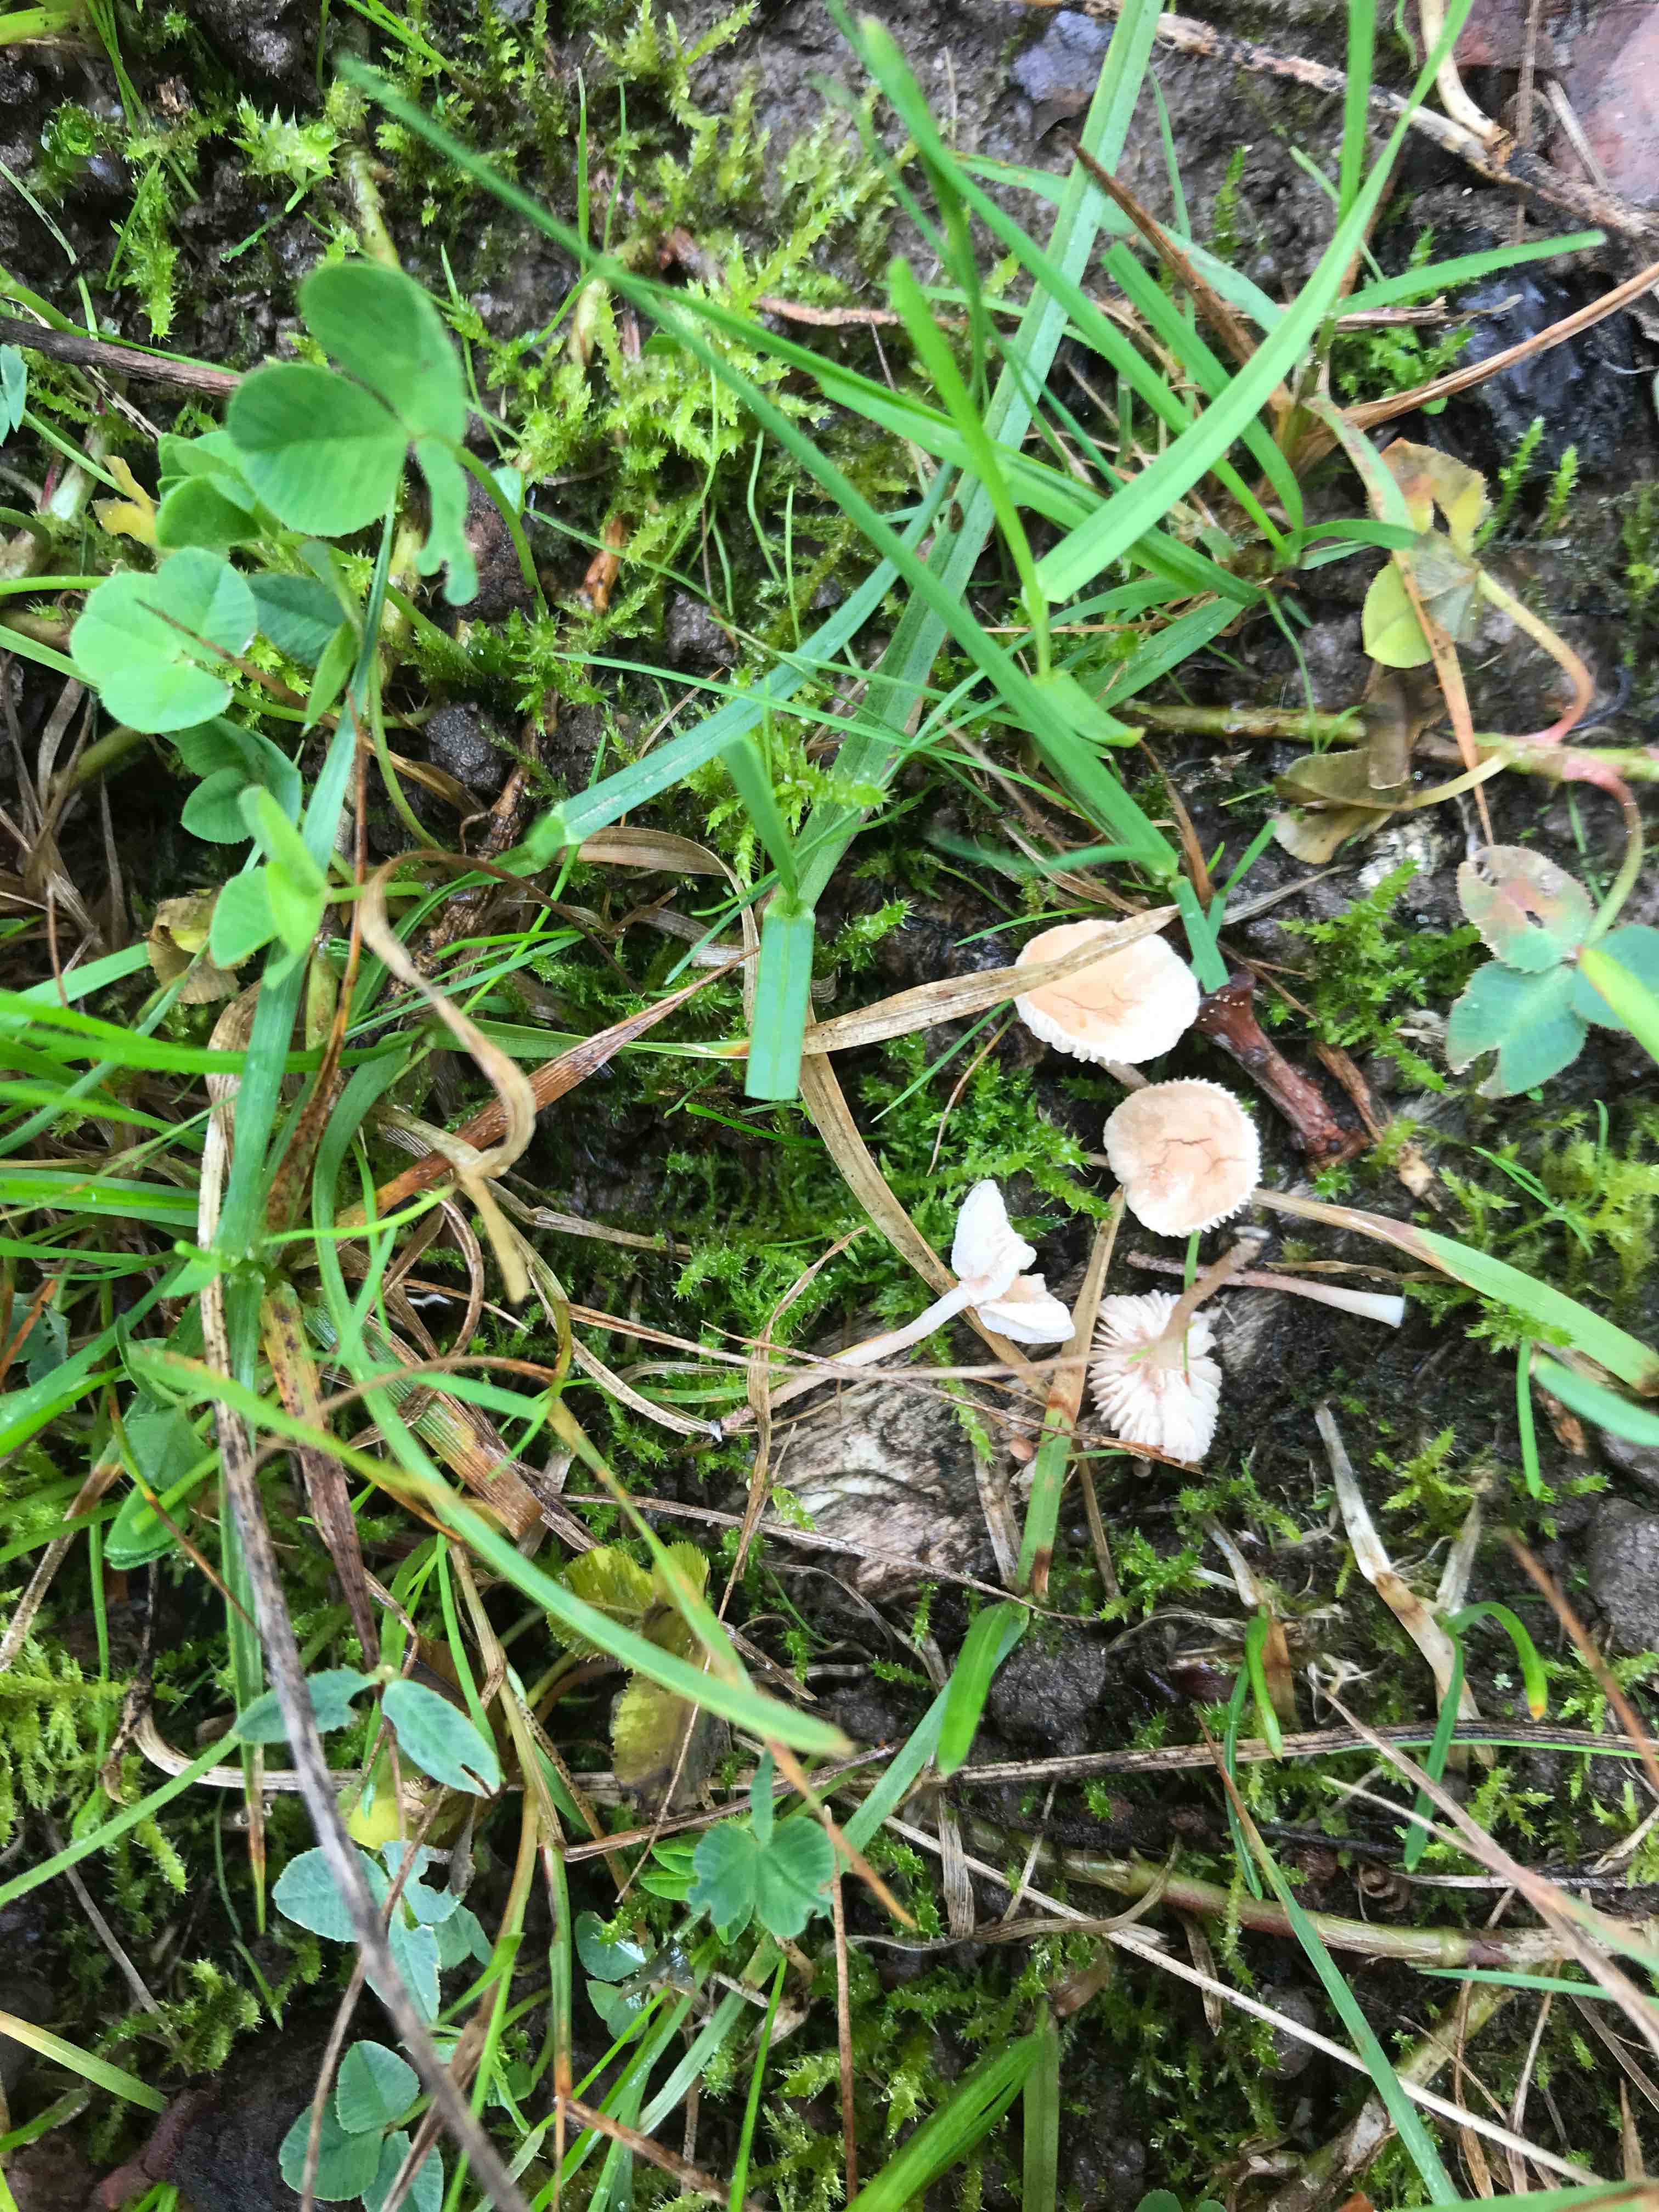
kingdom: Fungi
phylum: Basidiomycota
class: Agaricomycetes
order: Agaricales
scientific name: Agaricales
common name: champignonordenen
